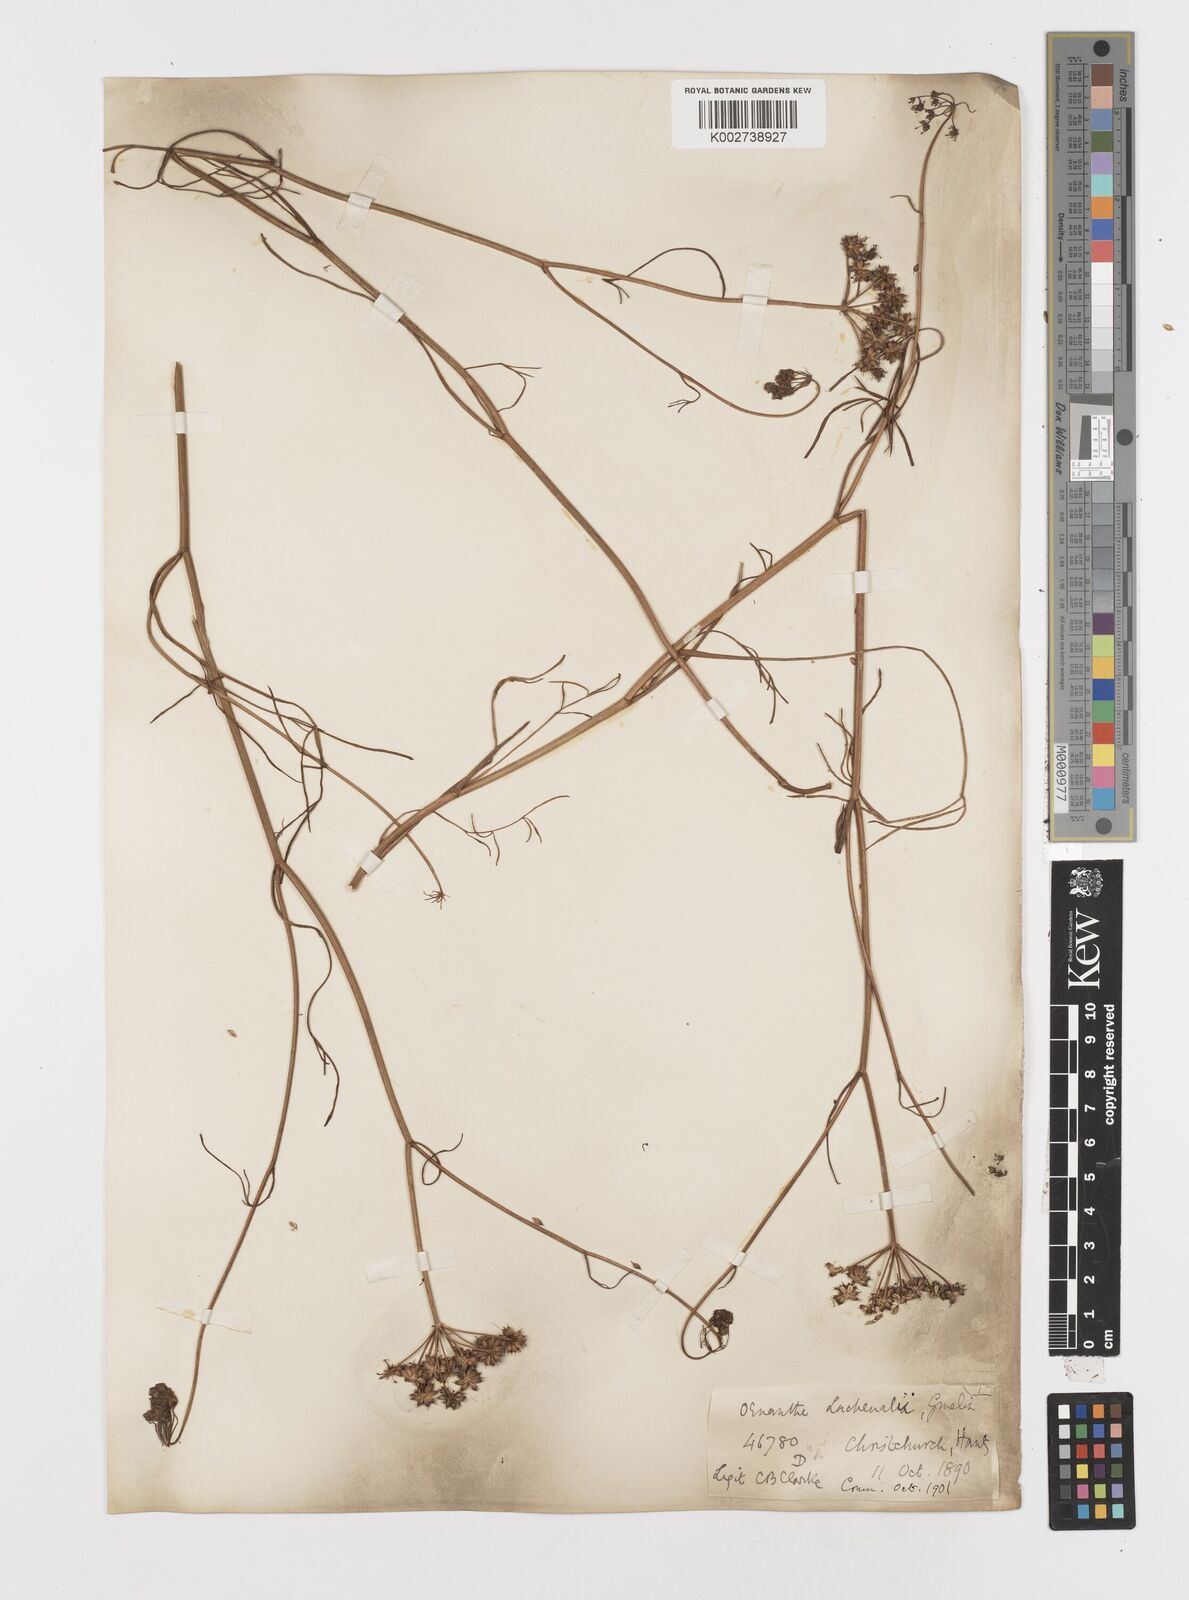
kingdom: Plantae
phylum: Tracheophyta
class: Magnoliopsida
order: Apiales
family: Apiaceae
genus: Oenanthe
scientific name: Oenanthe lachenalii
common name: Parsley water-dropwort
